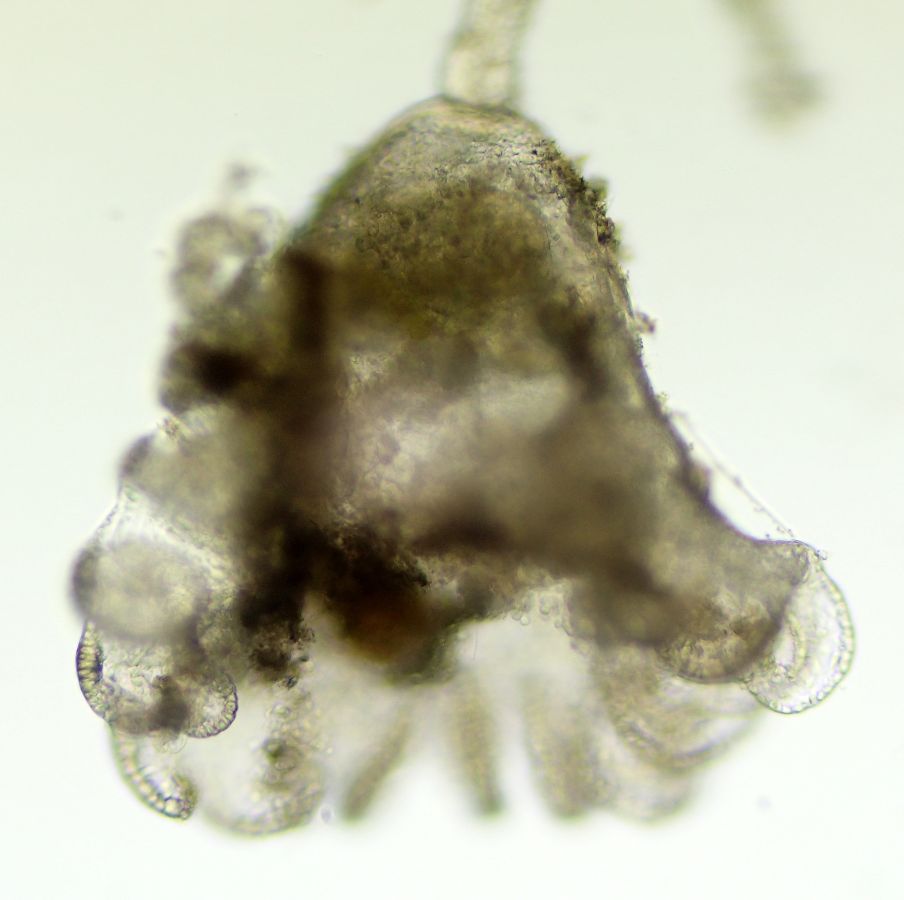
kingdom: Animalia
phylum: Entoprocta
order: Solitaria
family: Barentsiidae
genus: Barentsia
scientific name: Barentsia discreta
